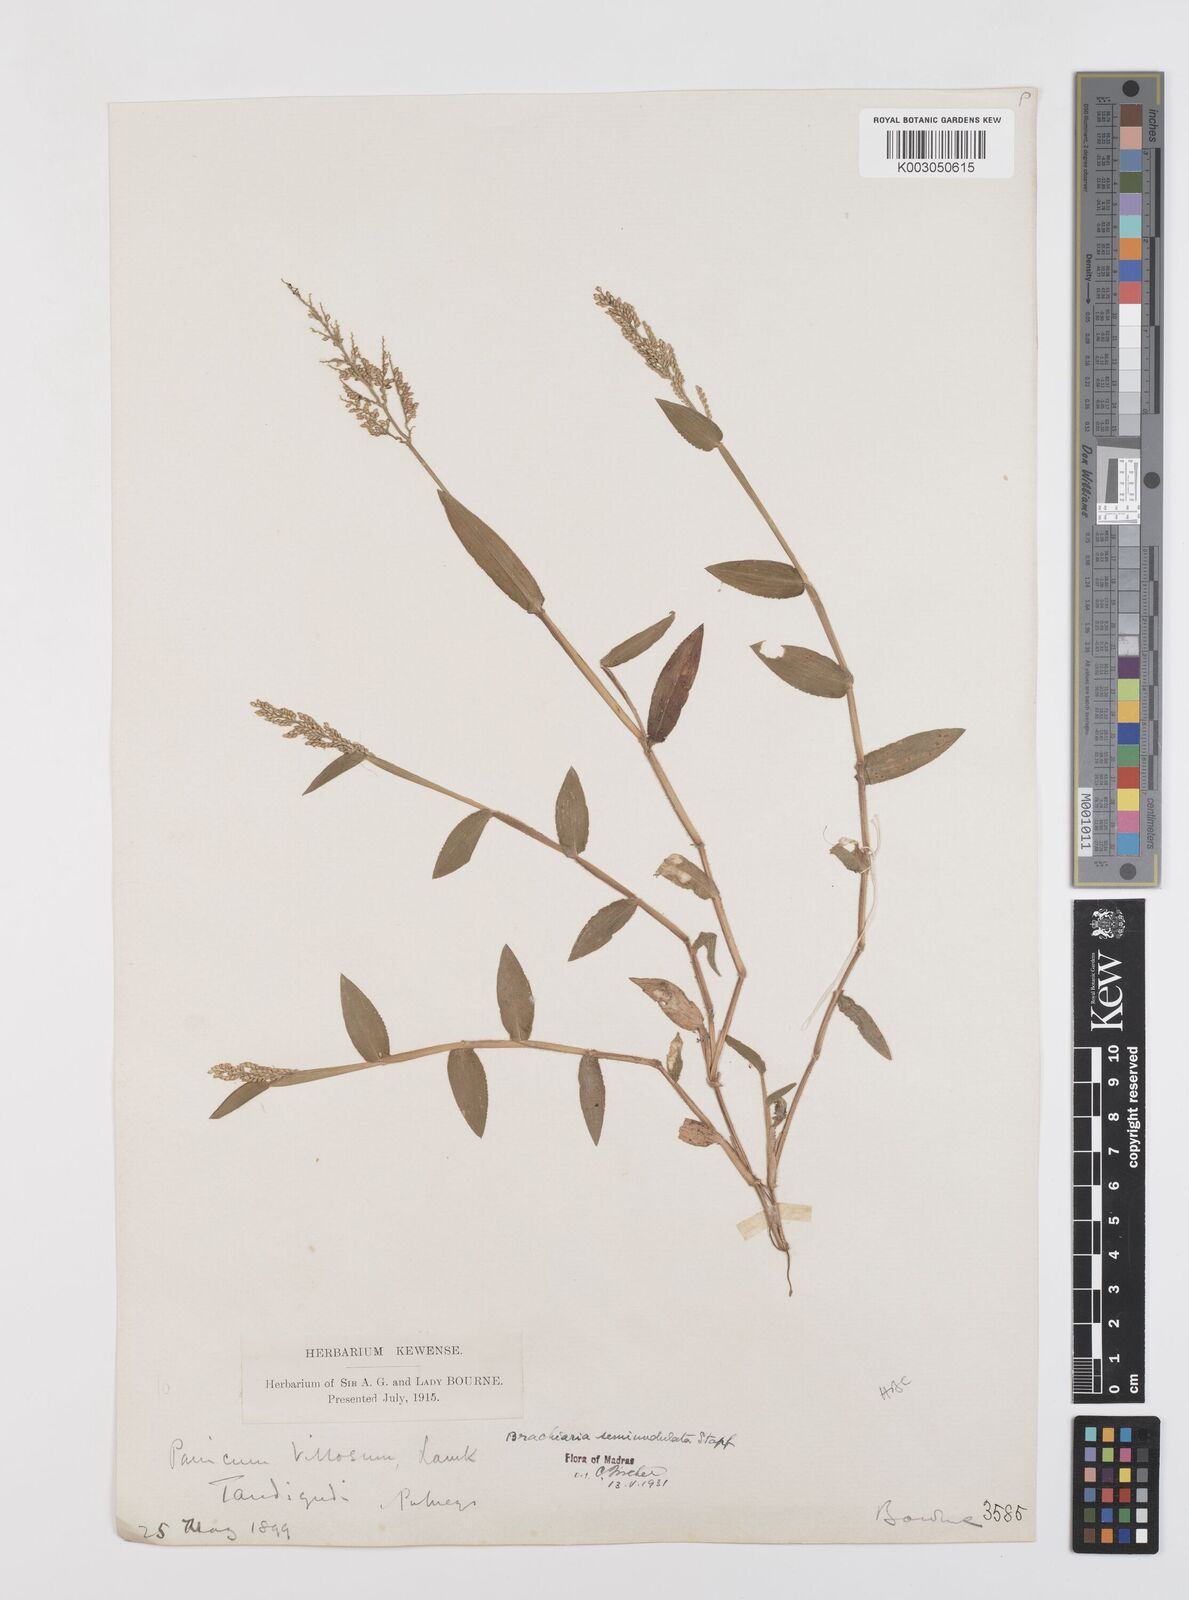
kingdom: Plantae
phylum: Tracheophyta
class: Liliopsida
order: Poales
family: Poaceae
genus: Urochloa
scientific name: Urochloa semiundulata
